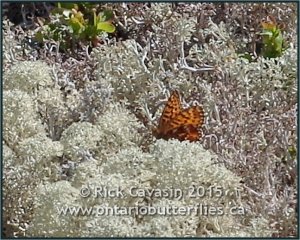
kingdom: Animalia
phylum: Arthropoda
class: Insecta
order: Lepidoptera
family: Nymphalidae
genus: Boloria
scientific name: Boloria freija
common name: Freija Fritillary
